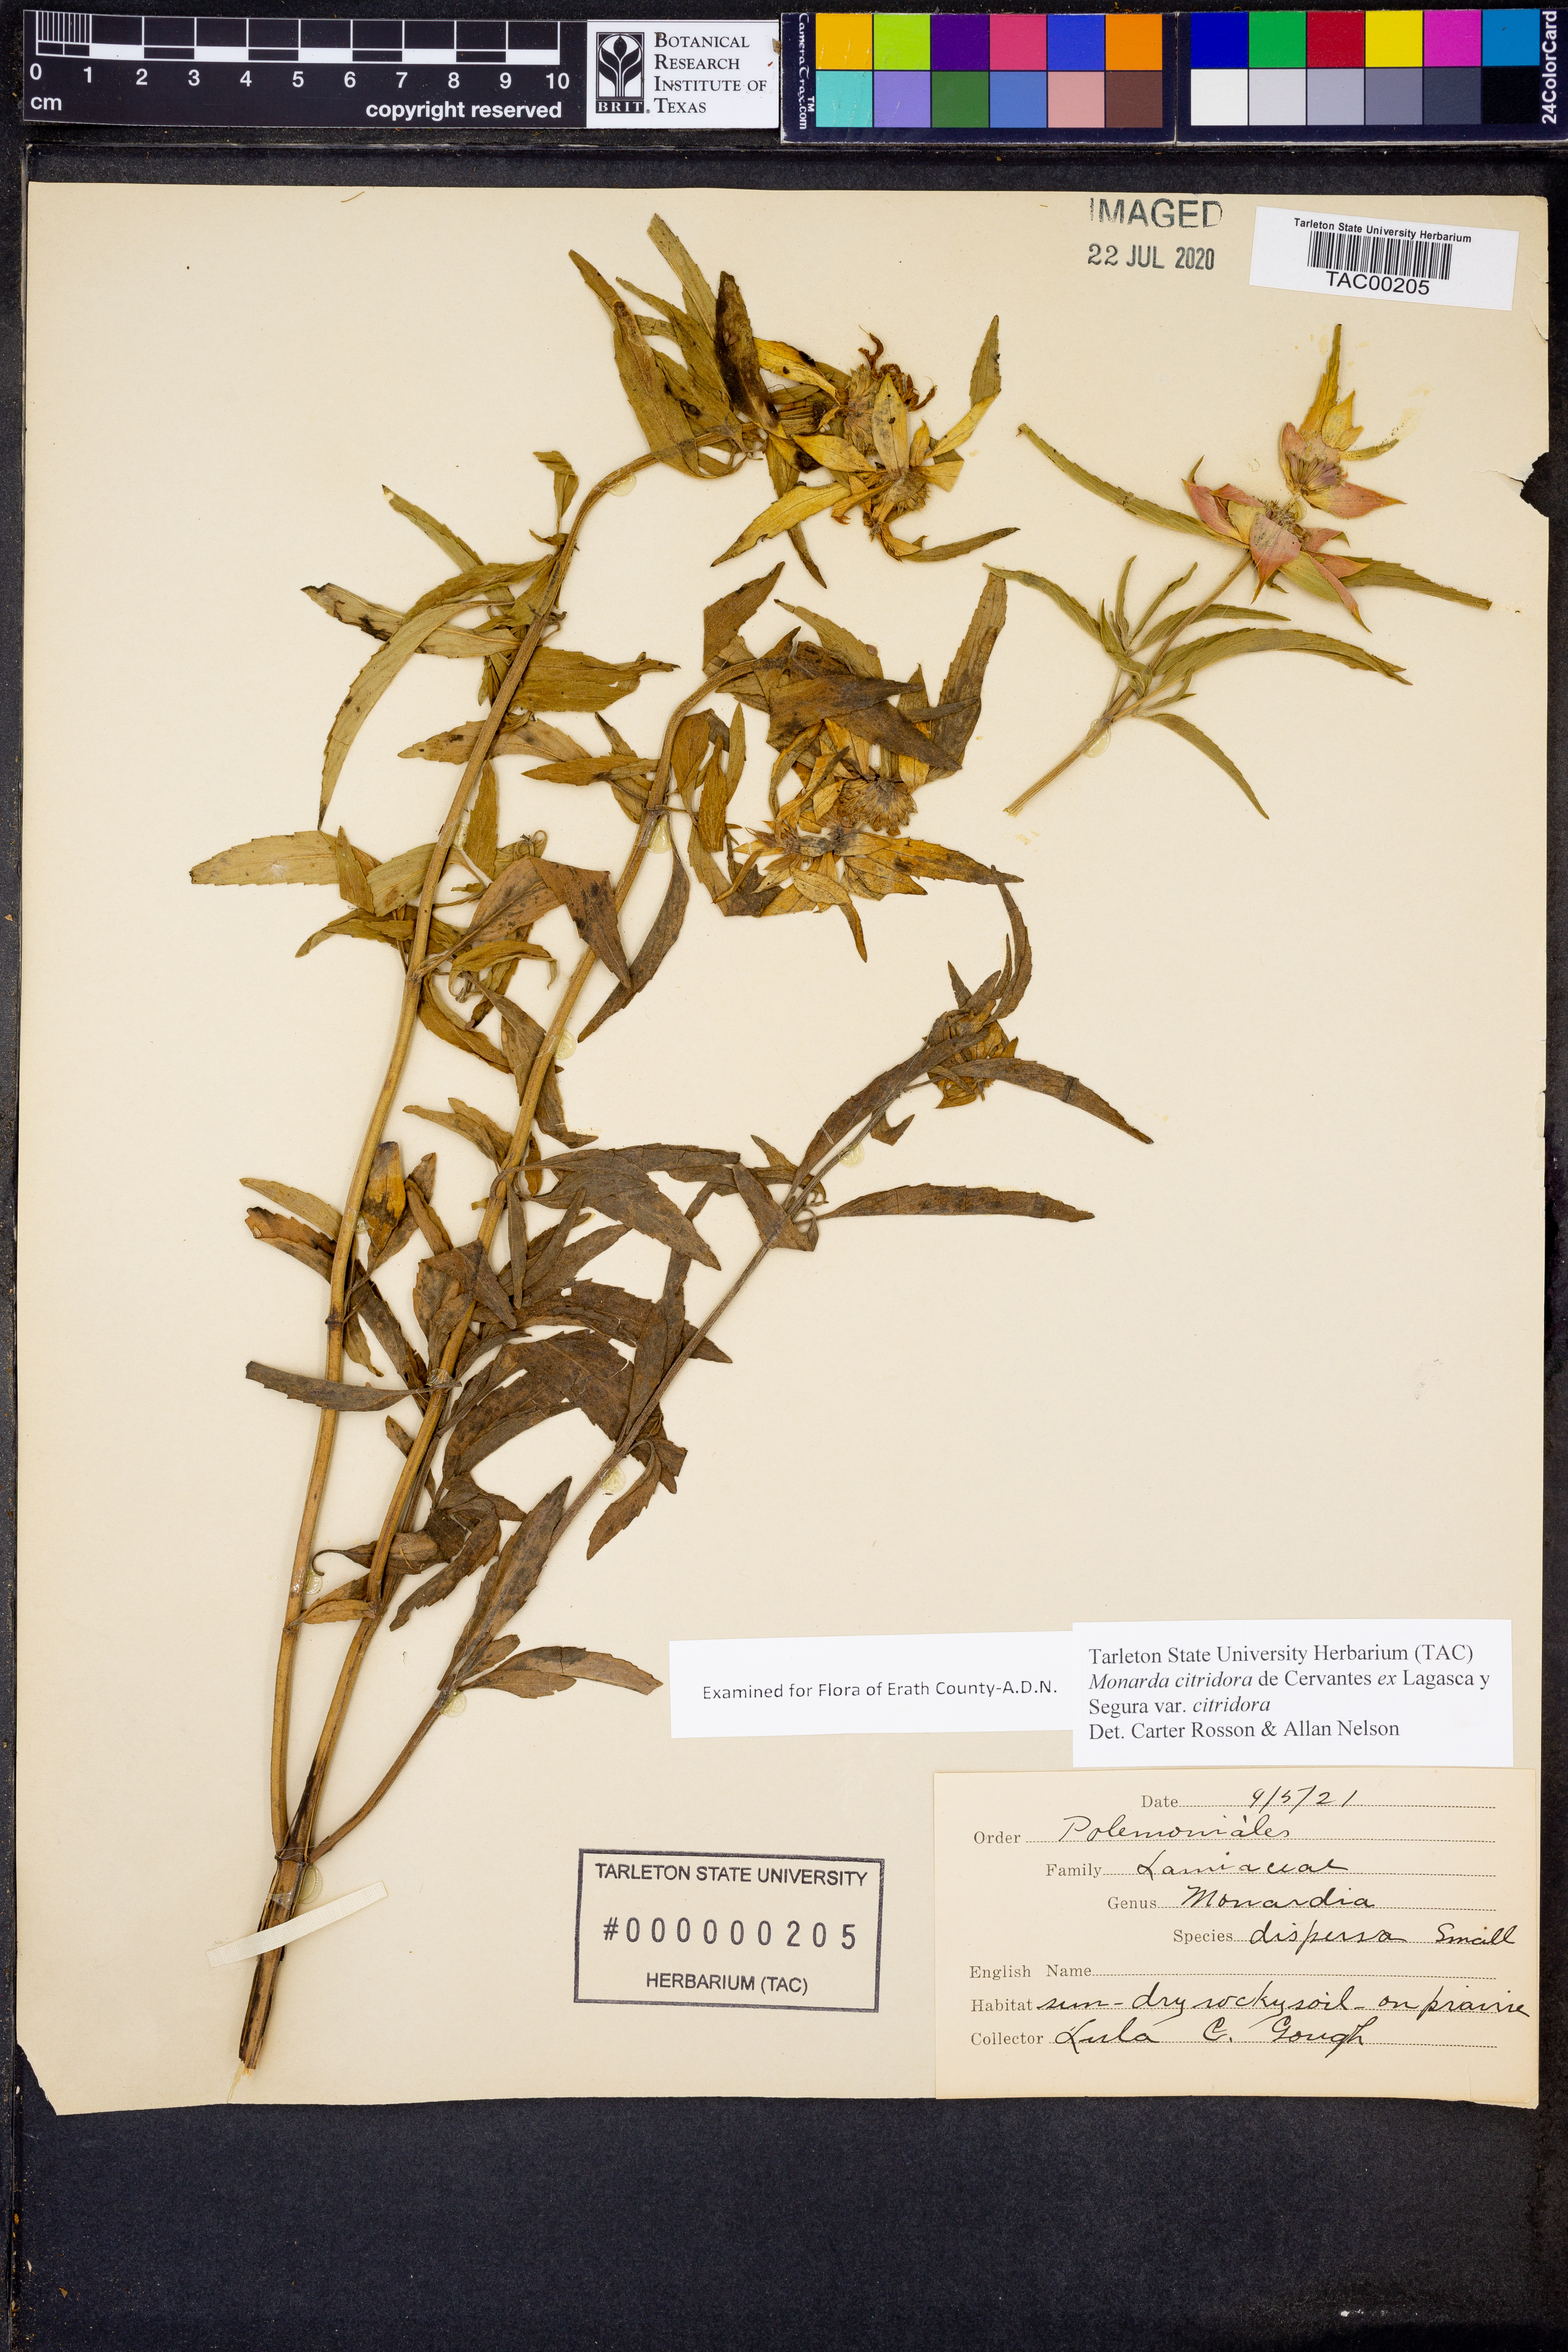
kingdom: Plantae
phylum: Tracheophyta
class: Magnoliopsida
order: Lamiales
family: Lamiaceae
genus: Monarda
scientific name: Monarda citriodora
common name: Lemon beebalm
